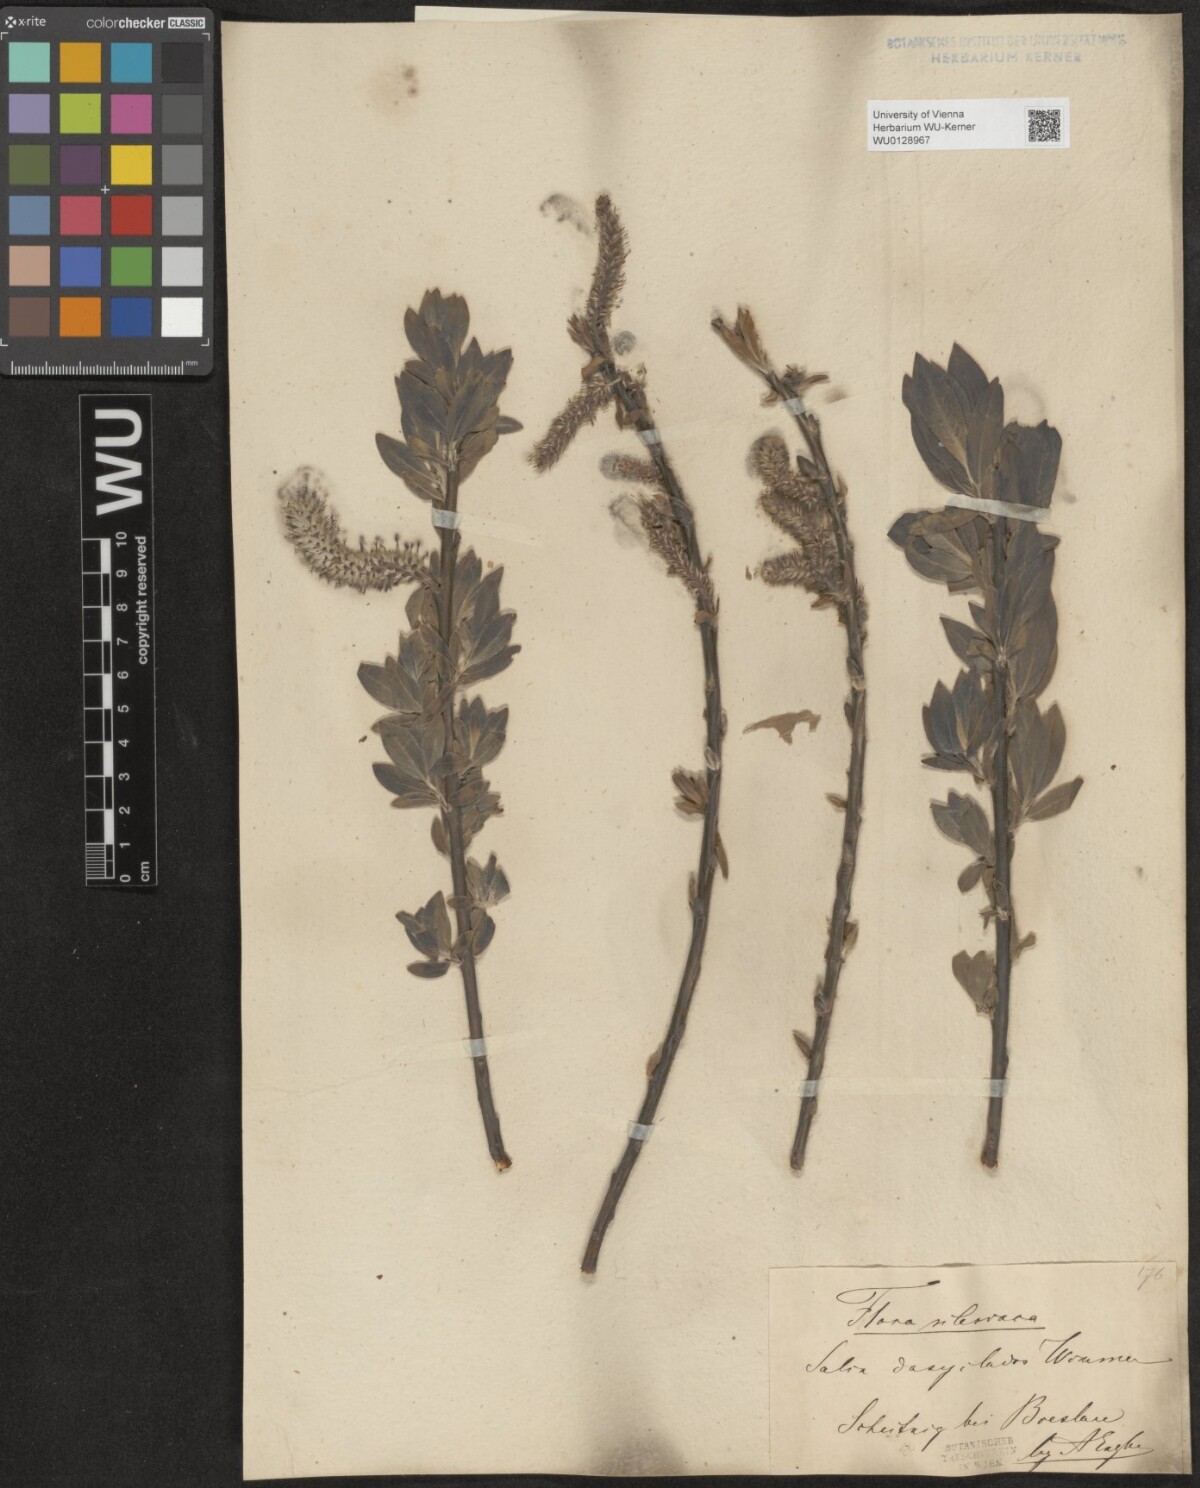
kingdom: Plantae
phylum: Tracheophyta
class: Magnoliopsida
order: Malpighiales
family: Salicaceae
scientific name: Salicaceae
